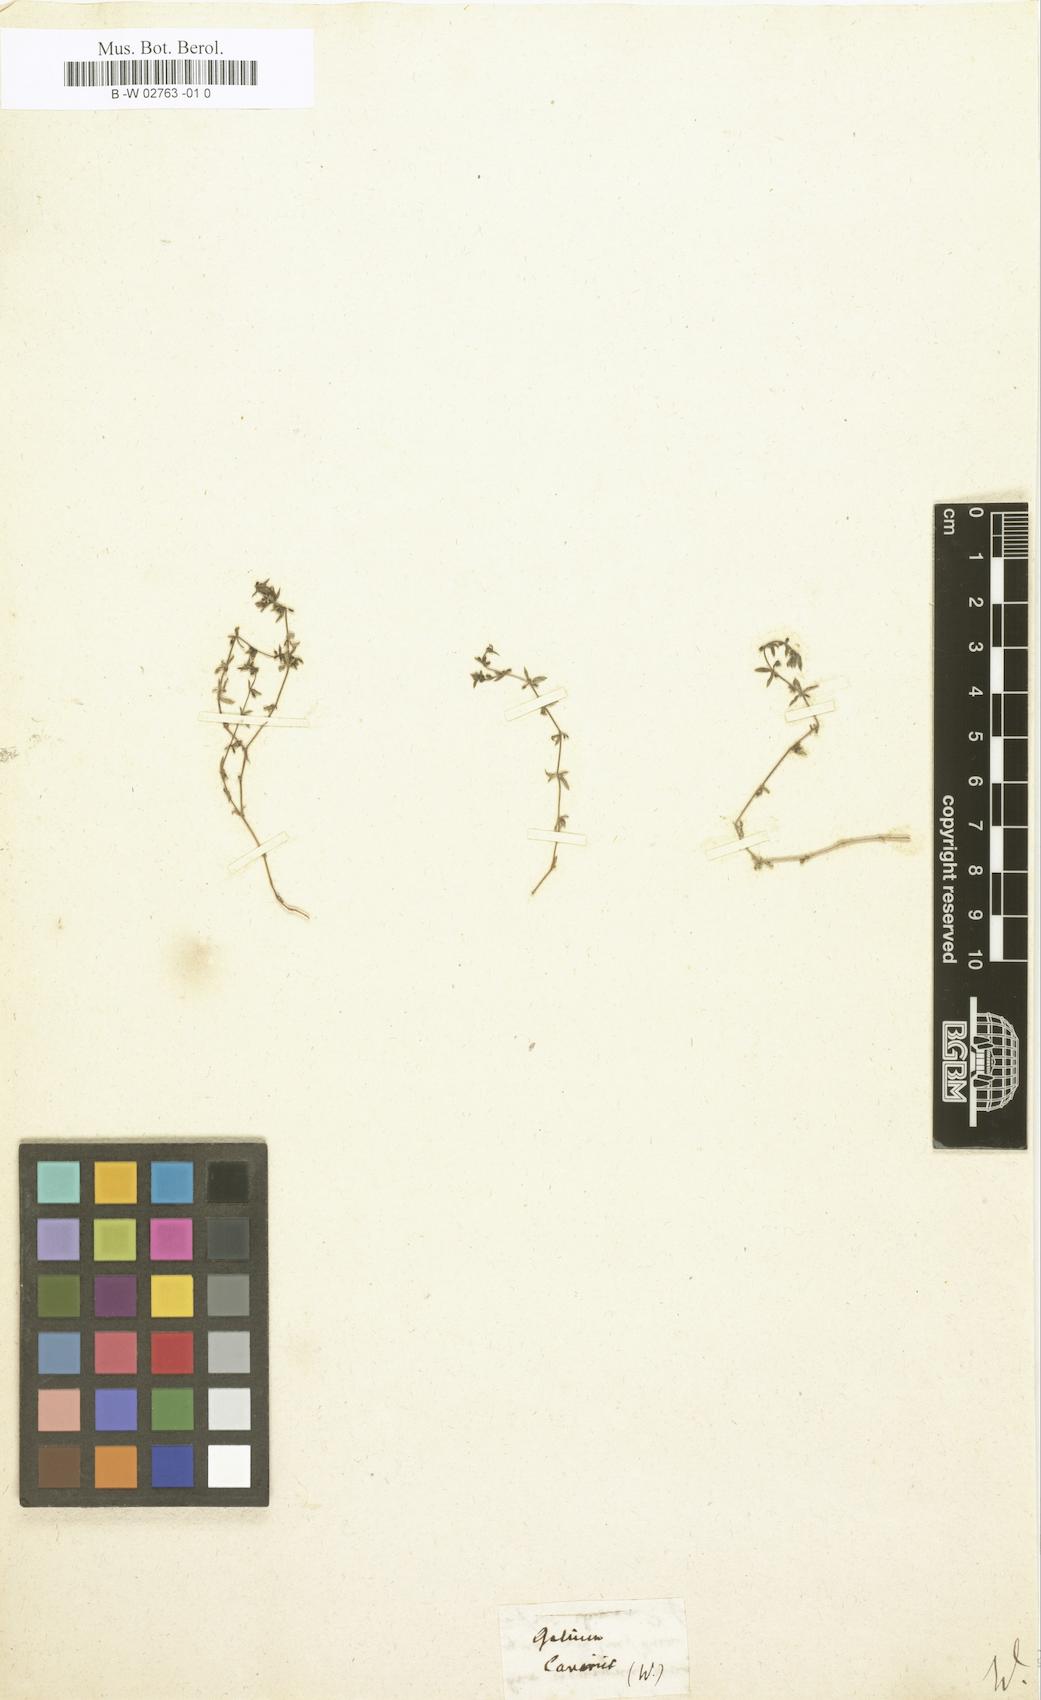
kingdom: Plantae
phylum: Tracheophyta
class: Magnoliopsida
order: Gentianales
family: Rubiaceae
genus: Galium
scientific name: Galium
